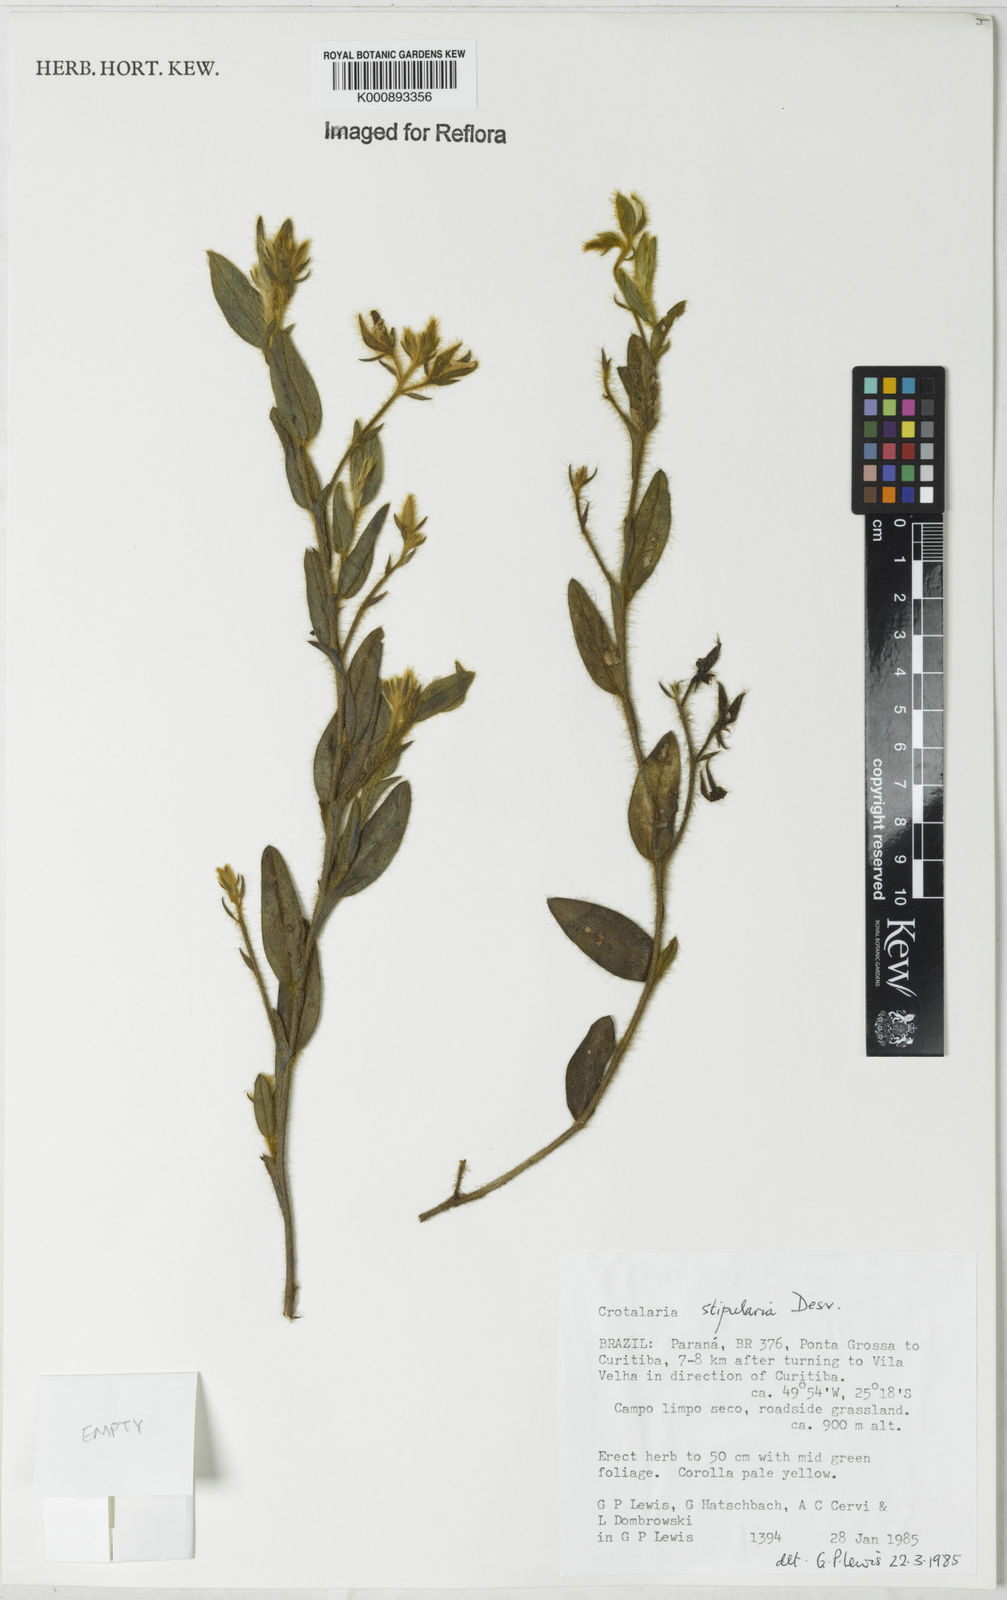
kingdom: Plantae
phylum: Tracheophyta
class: Magnoliopsida
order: Fabales
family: Fabaceae
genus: Crotalaria
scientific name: Crotalaria balansae
